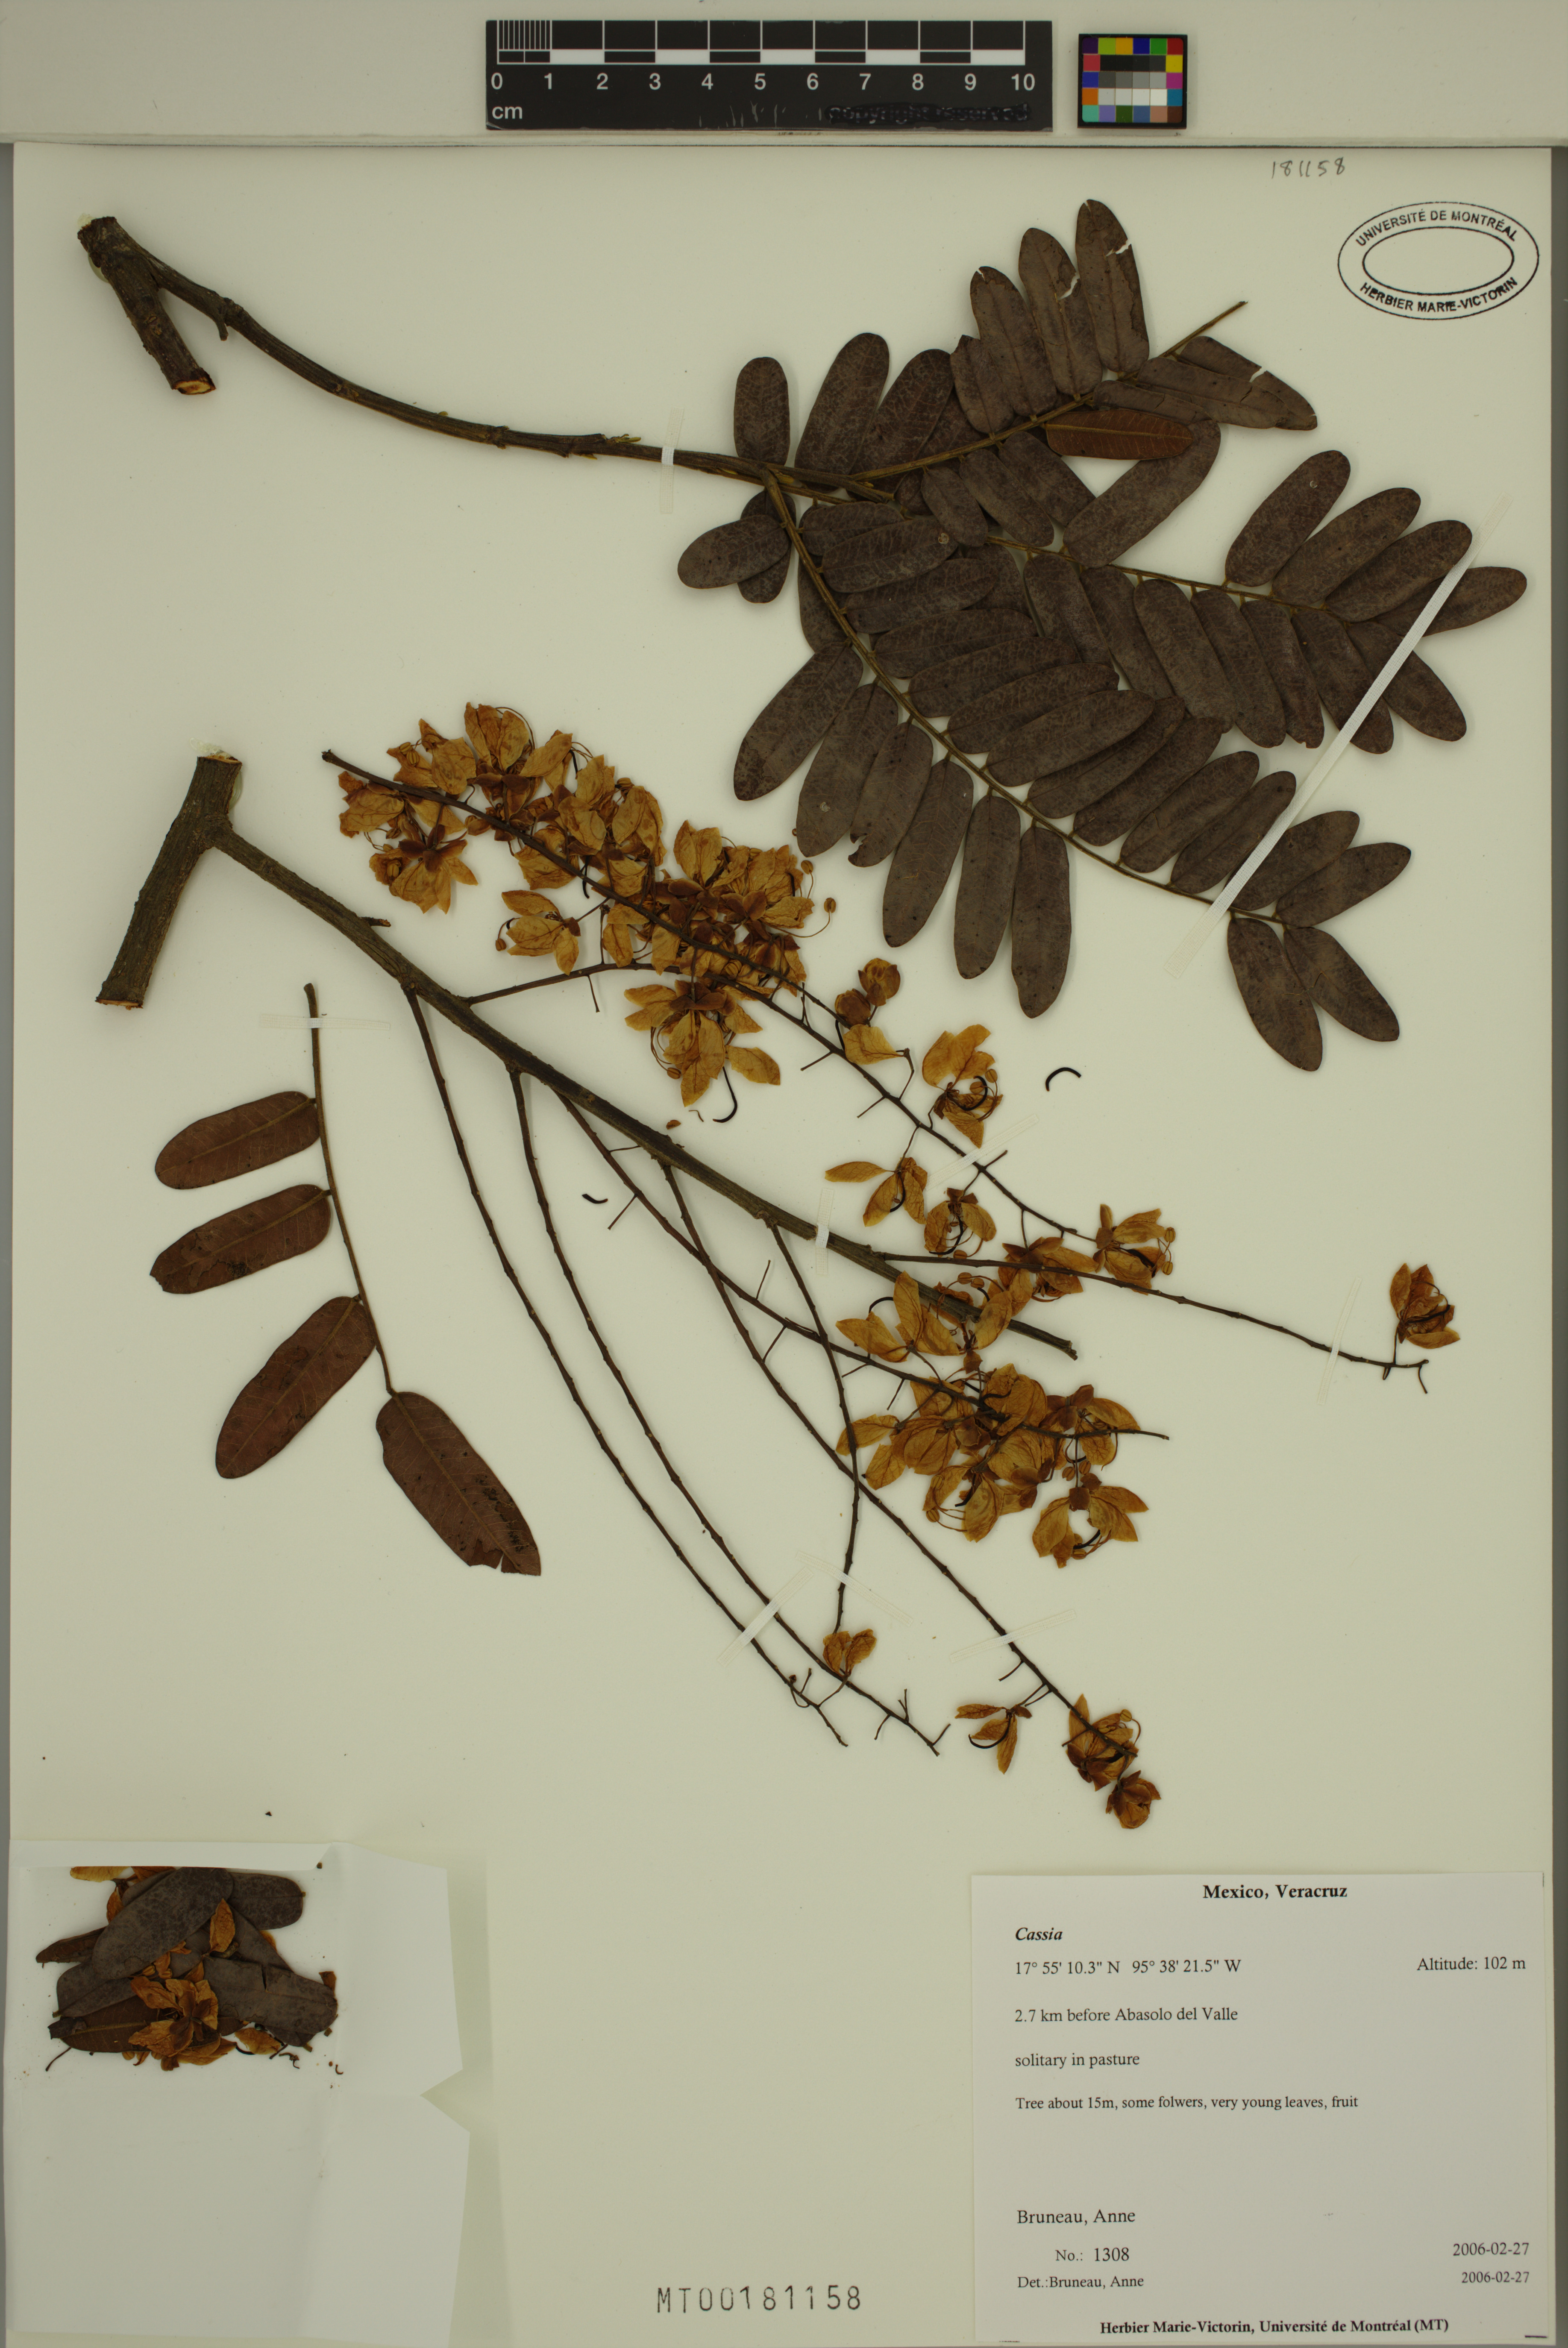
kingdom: Plantae
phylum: Tracheophyta
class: Magnoliopsida
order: Fabales
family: Fabaceae
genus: Cassia
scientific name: Cassia
